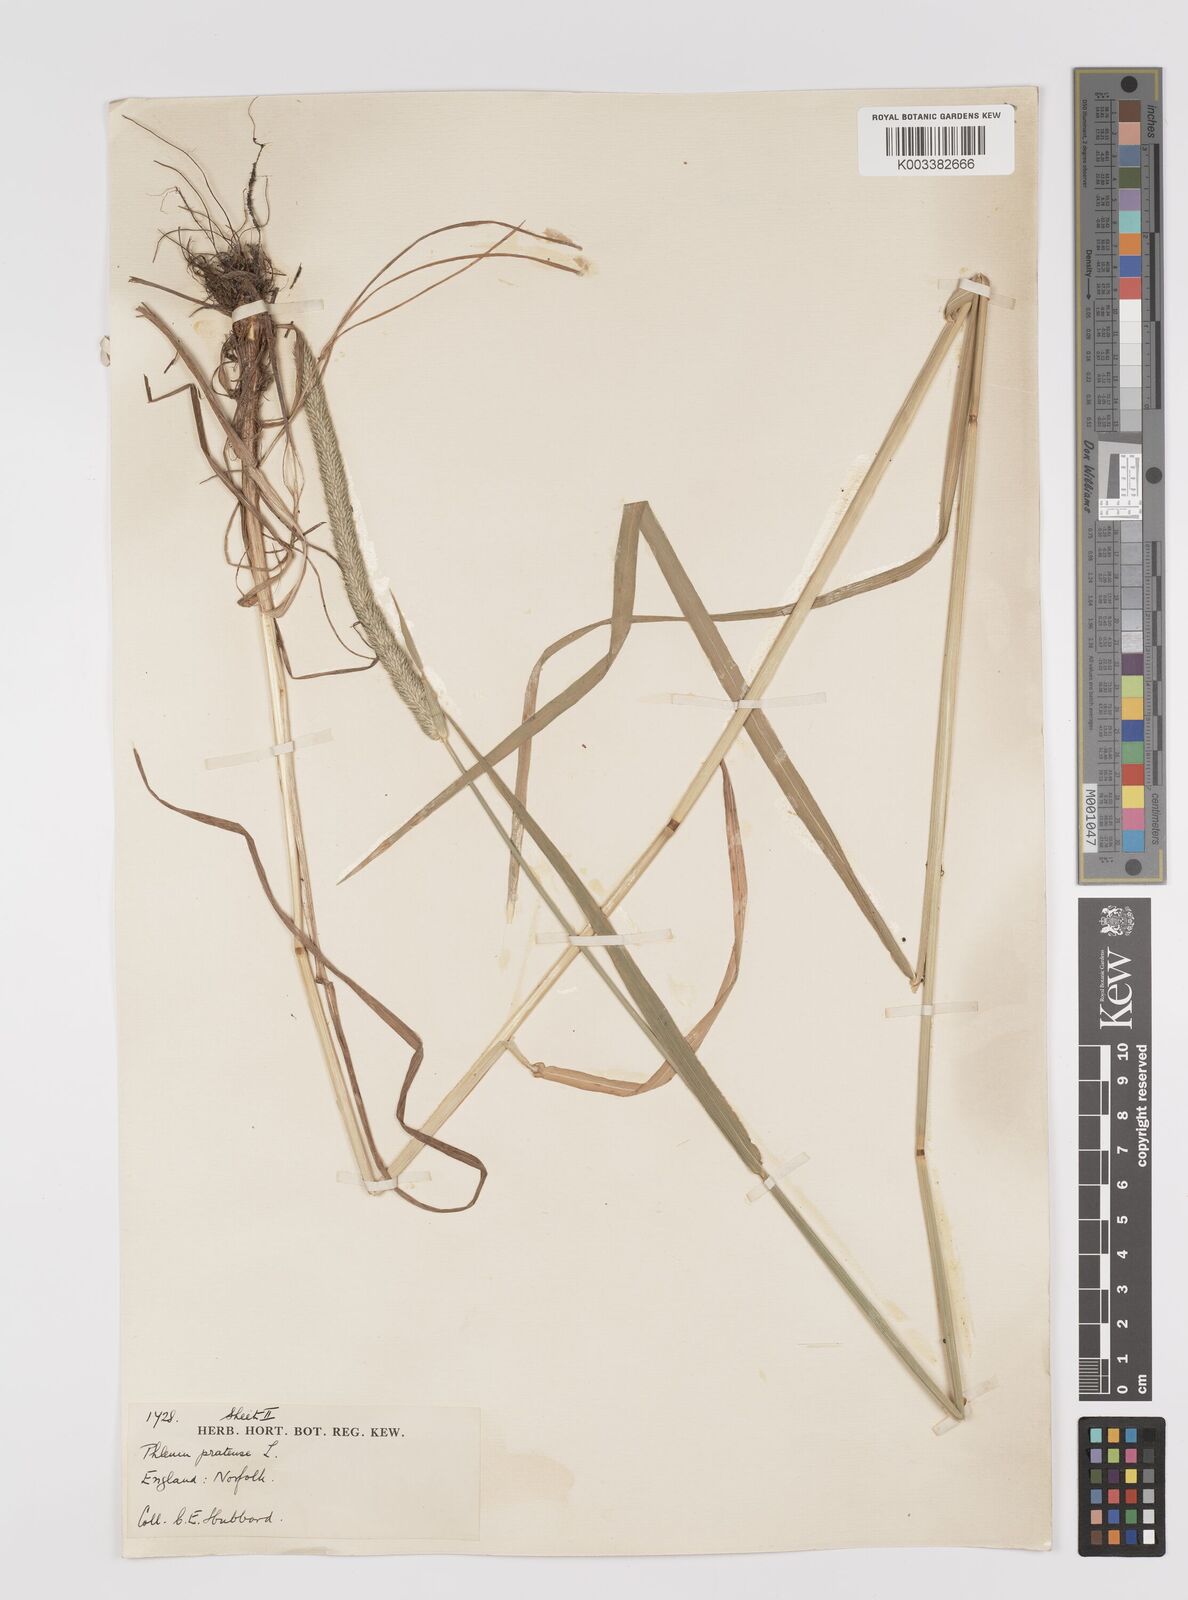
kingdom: Plantae
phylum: Tracheophyta
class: Liliopsida
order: Poales
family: Poaceae
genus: Phleum
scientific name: Phleum pratense
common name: Timothy grass
